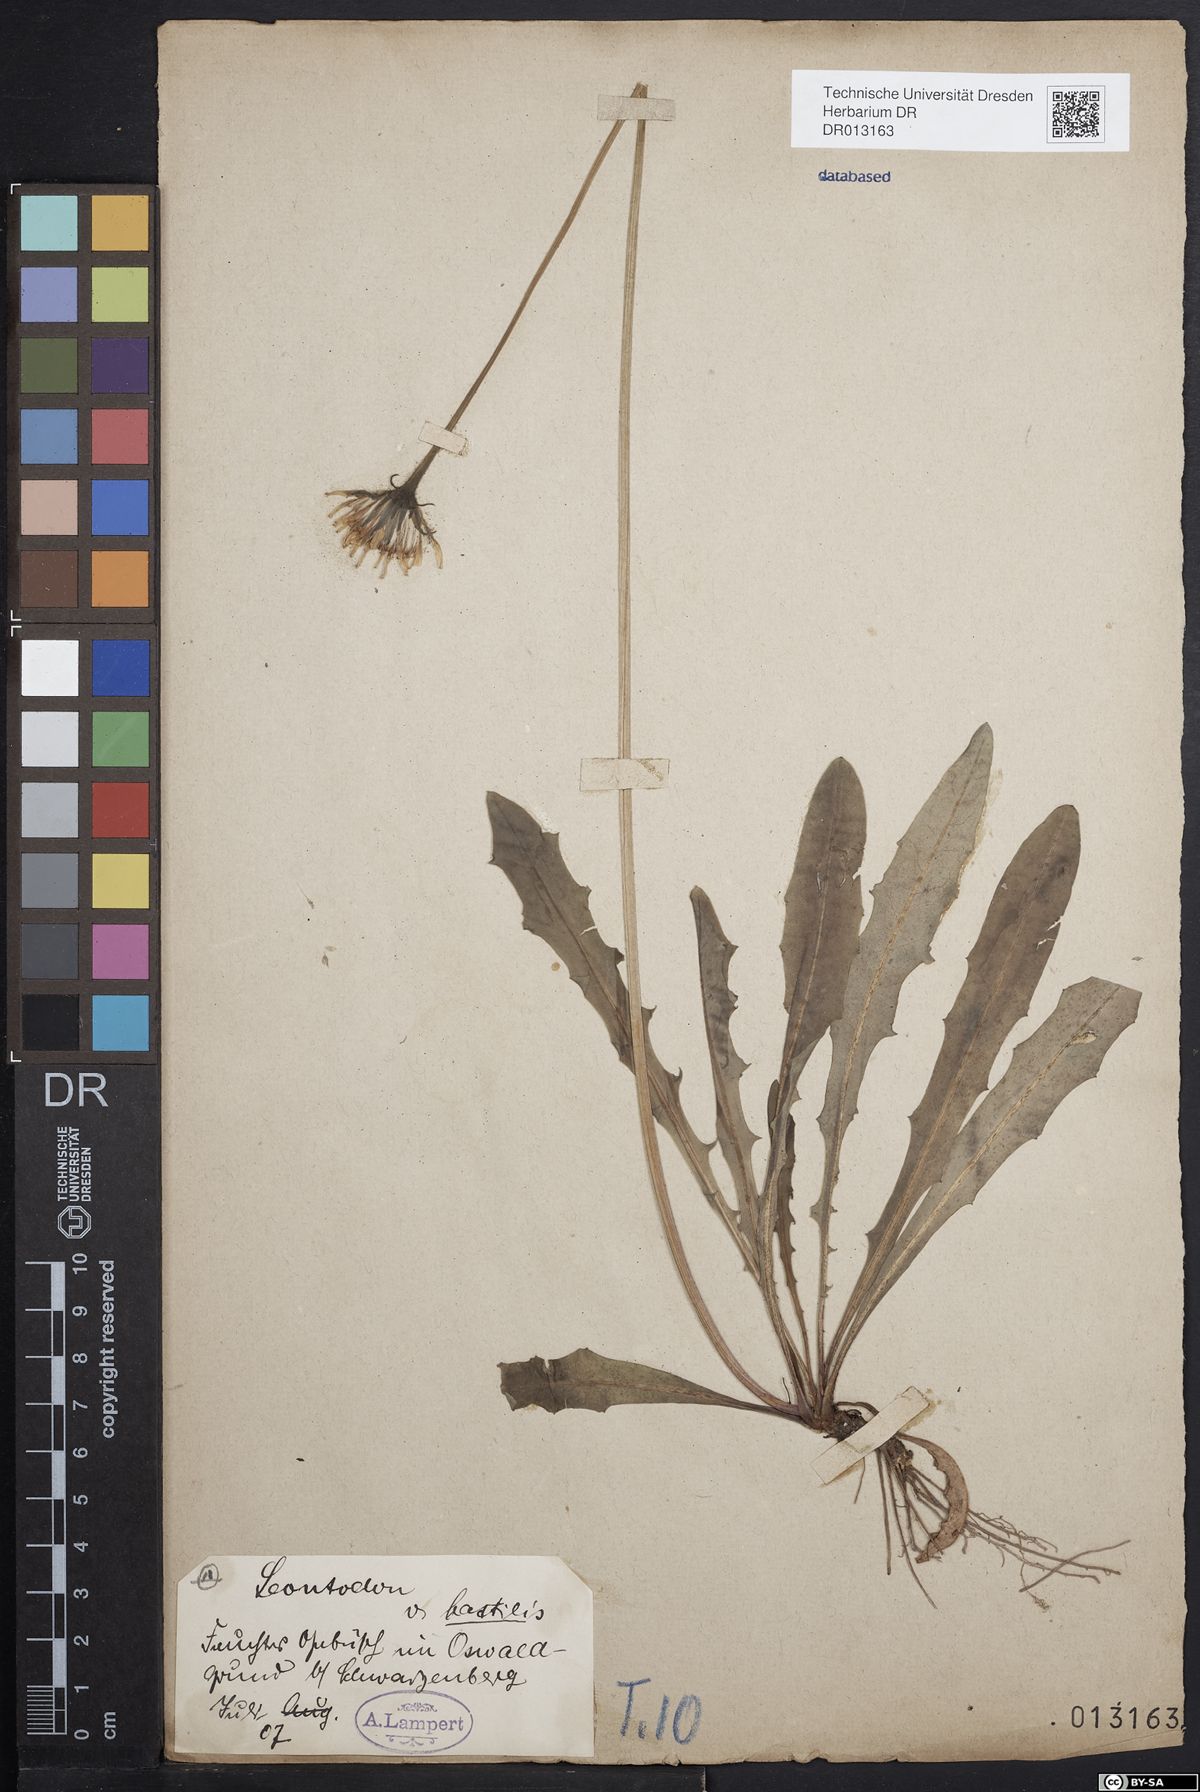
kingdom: Plantae
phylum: Tracheophyta
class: Magnoliopsida
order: Asterales
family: Asteraceae
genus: Leontodon
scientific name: Leontodon hispidus
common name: Rough hawkbit
